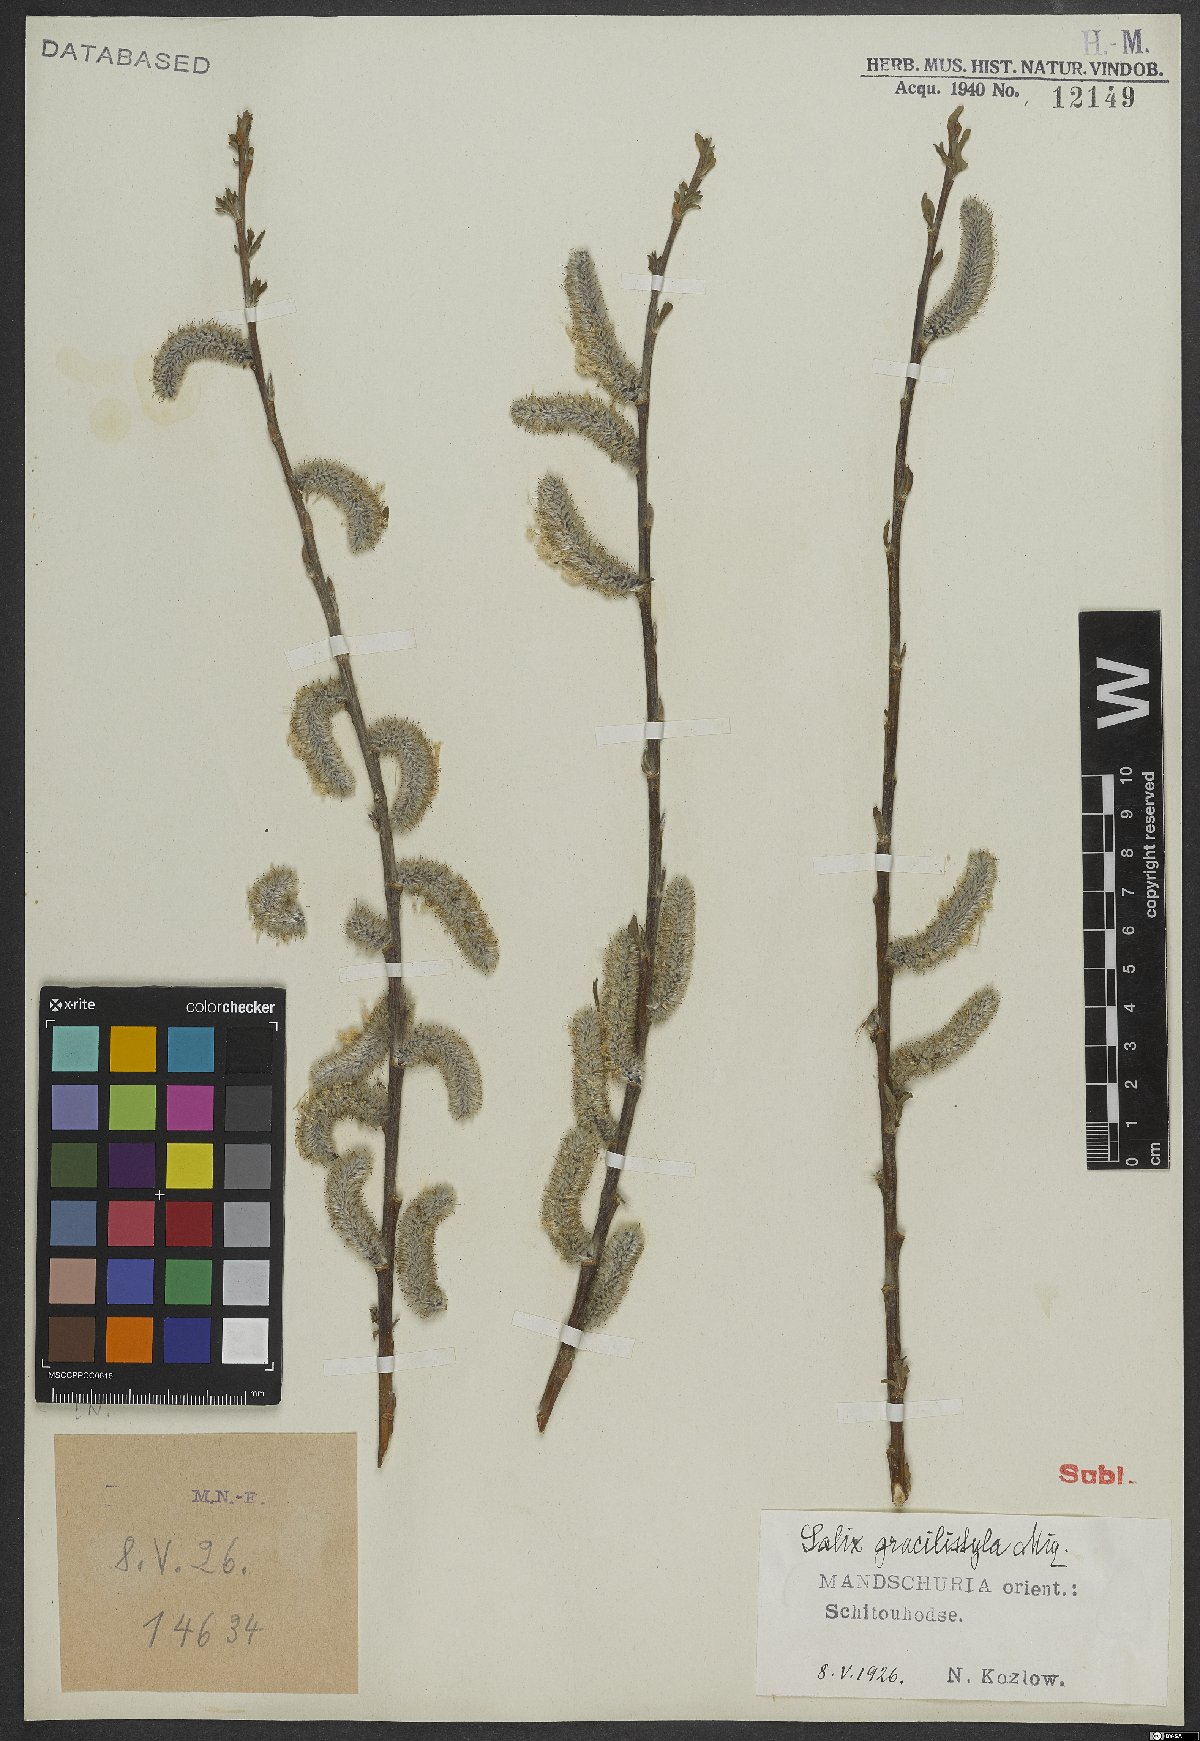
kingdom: Plantae
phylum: Tracheophyta
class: Magnoliopsida
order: Malpighiales
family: Salicaceae
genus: Salix
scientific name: Salix gracilistyla
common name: Rose-gold pussy willow
